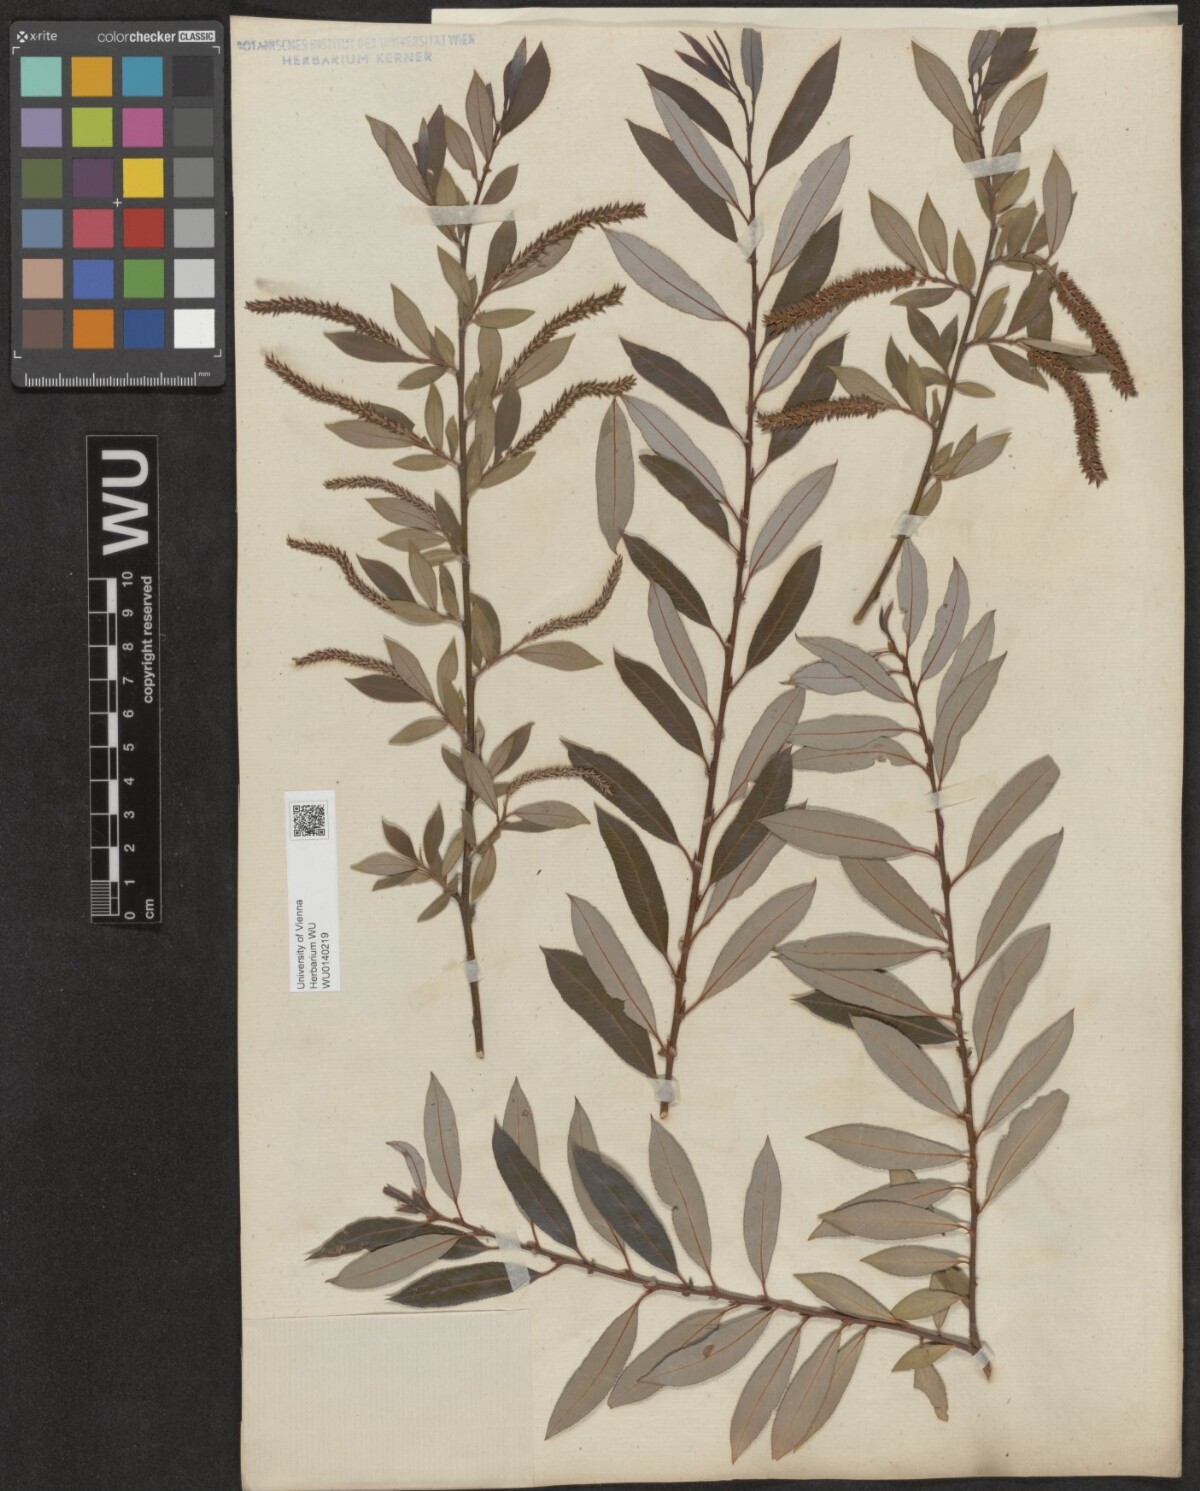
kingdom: Plantae
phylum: Tracheophyta
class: Magnoliopsida
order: Malpighiales
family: Salicaceae
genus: Salix
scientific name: Salix triandra
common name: Almond willow
